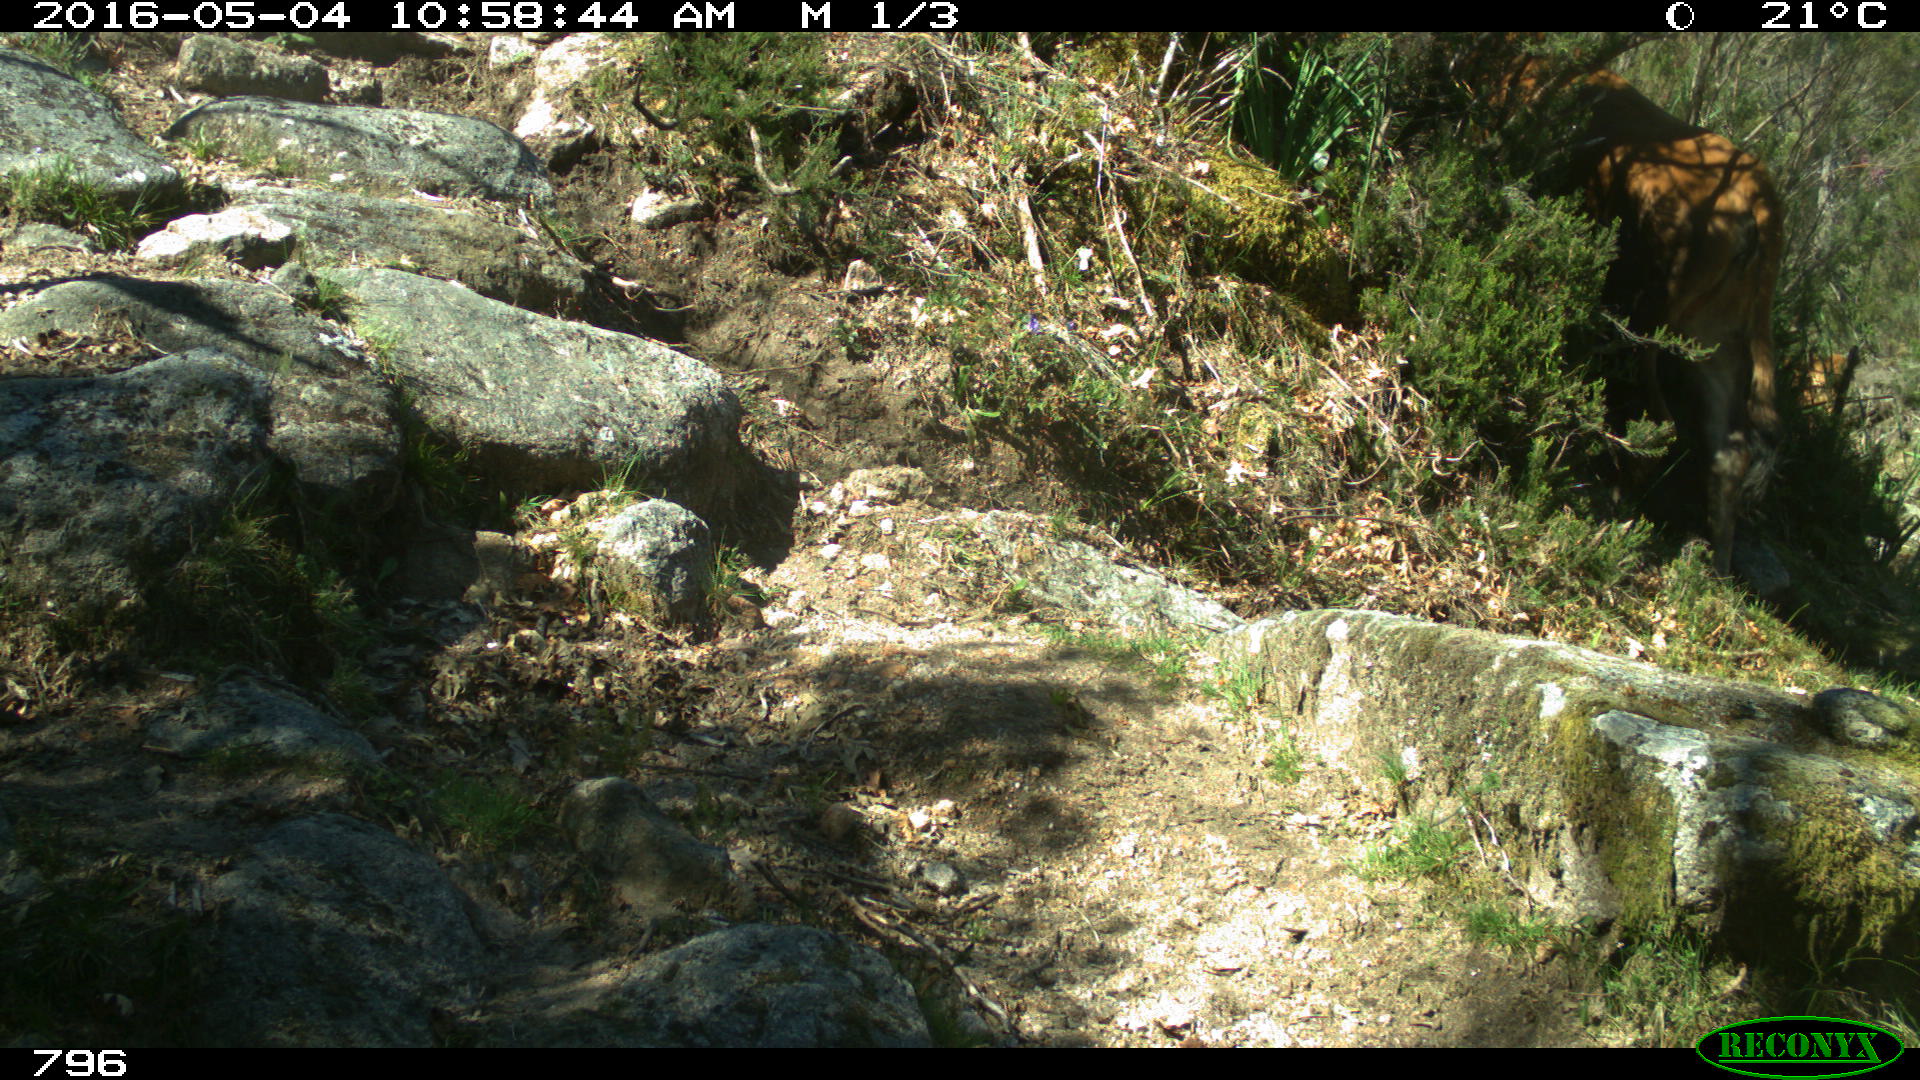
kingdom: Animalia
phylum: Chordata
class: Mammalia
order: Artiodactyla
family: Bovidae
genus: Bos
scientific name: Bos taurus
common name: Domesticated cattle
